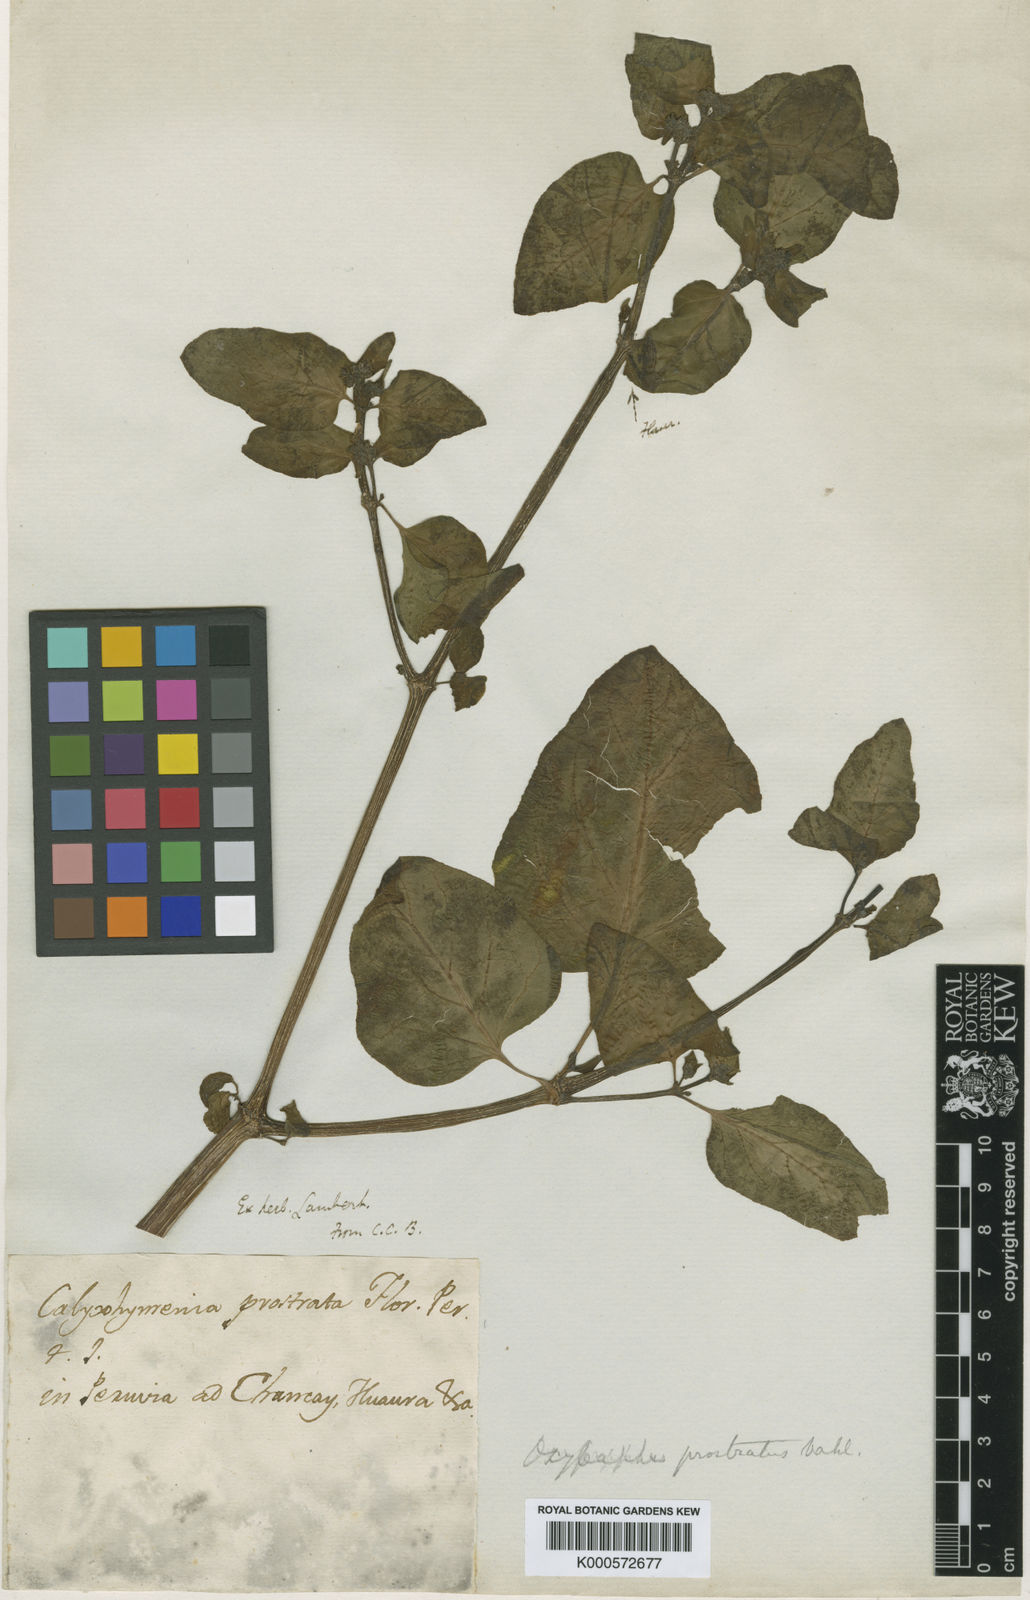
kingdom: Plantae
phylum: Tracheophyta
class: Magnoliopsida
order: Caryophyllales
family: Nyctaginaceae
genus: Mirabilis
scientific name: Mirabilis prostrata
